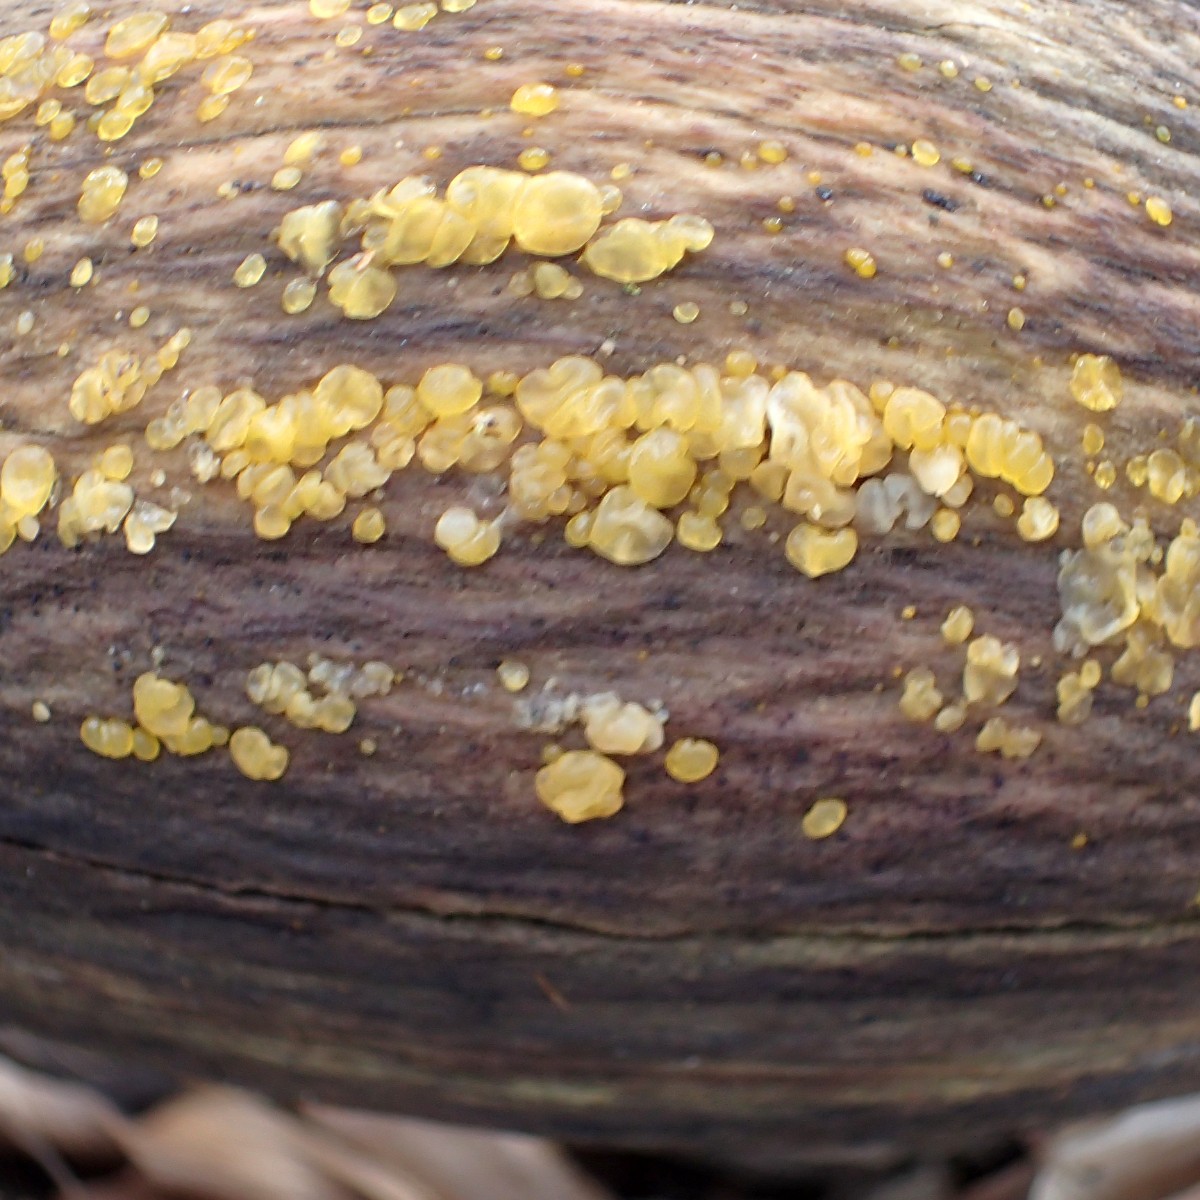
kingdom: Fungi
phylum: Basidiomycota
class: Dacrymycetes
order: Dacrymycetales
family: Dacrymycetaceae
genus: Dacrymyces
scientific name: Dacrymyces
